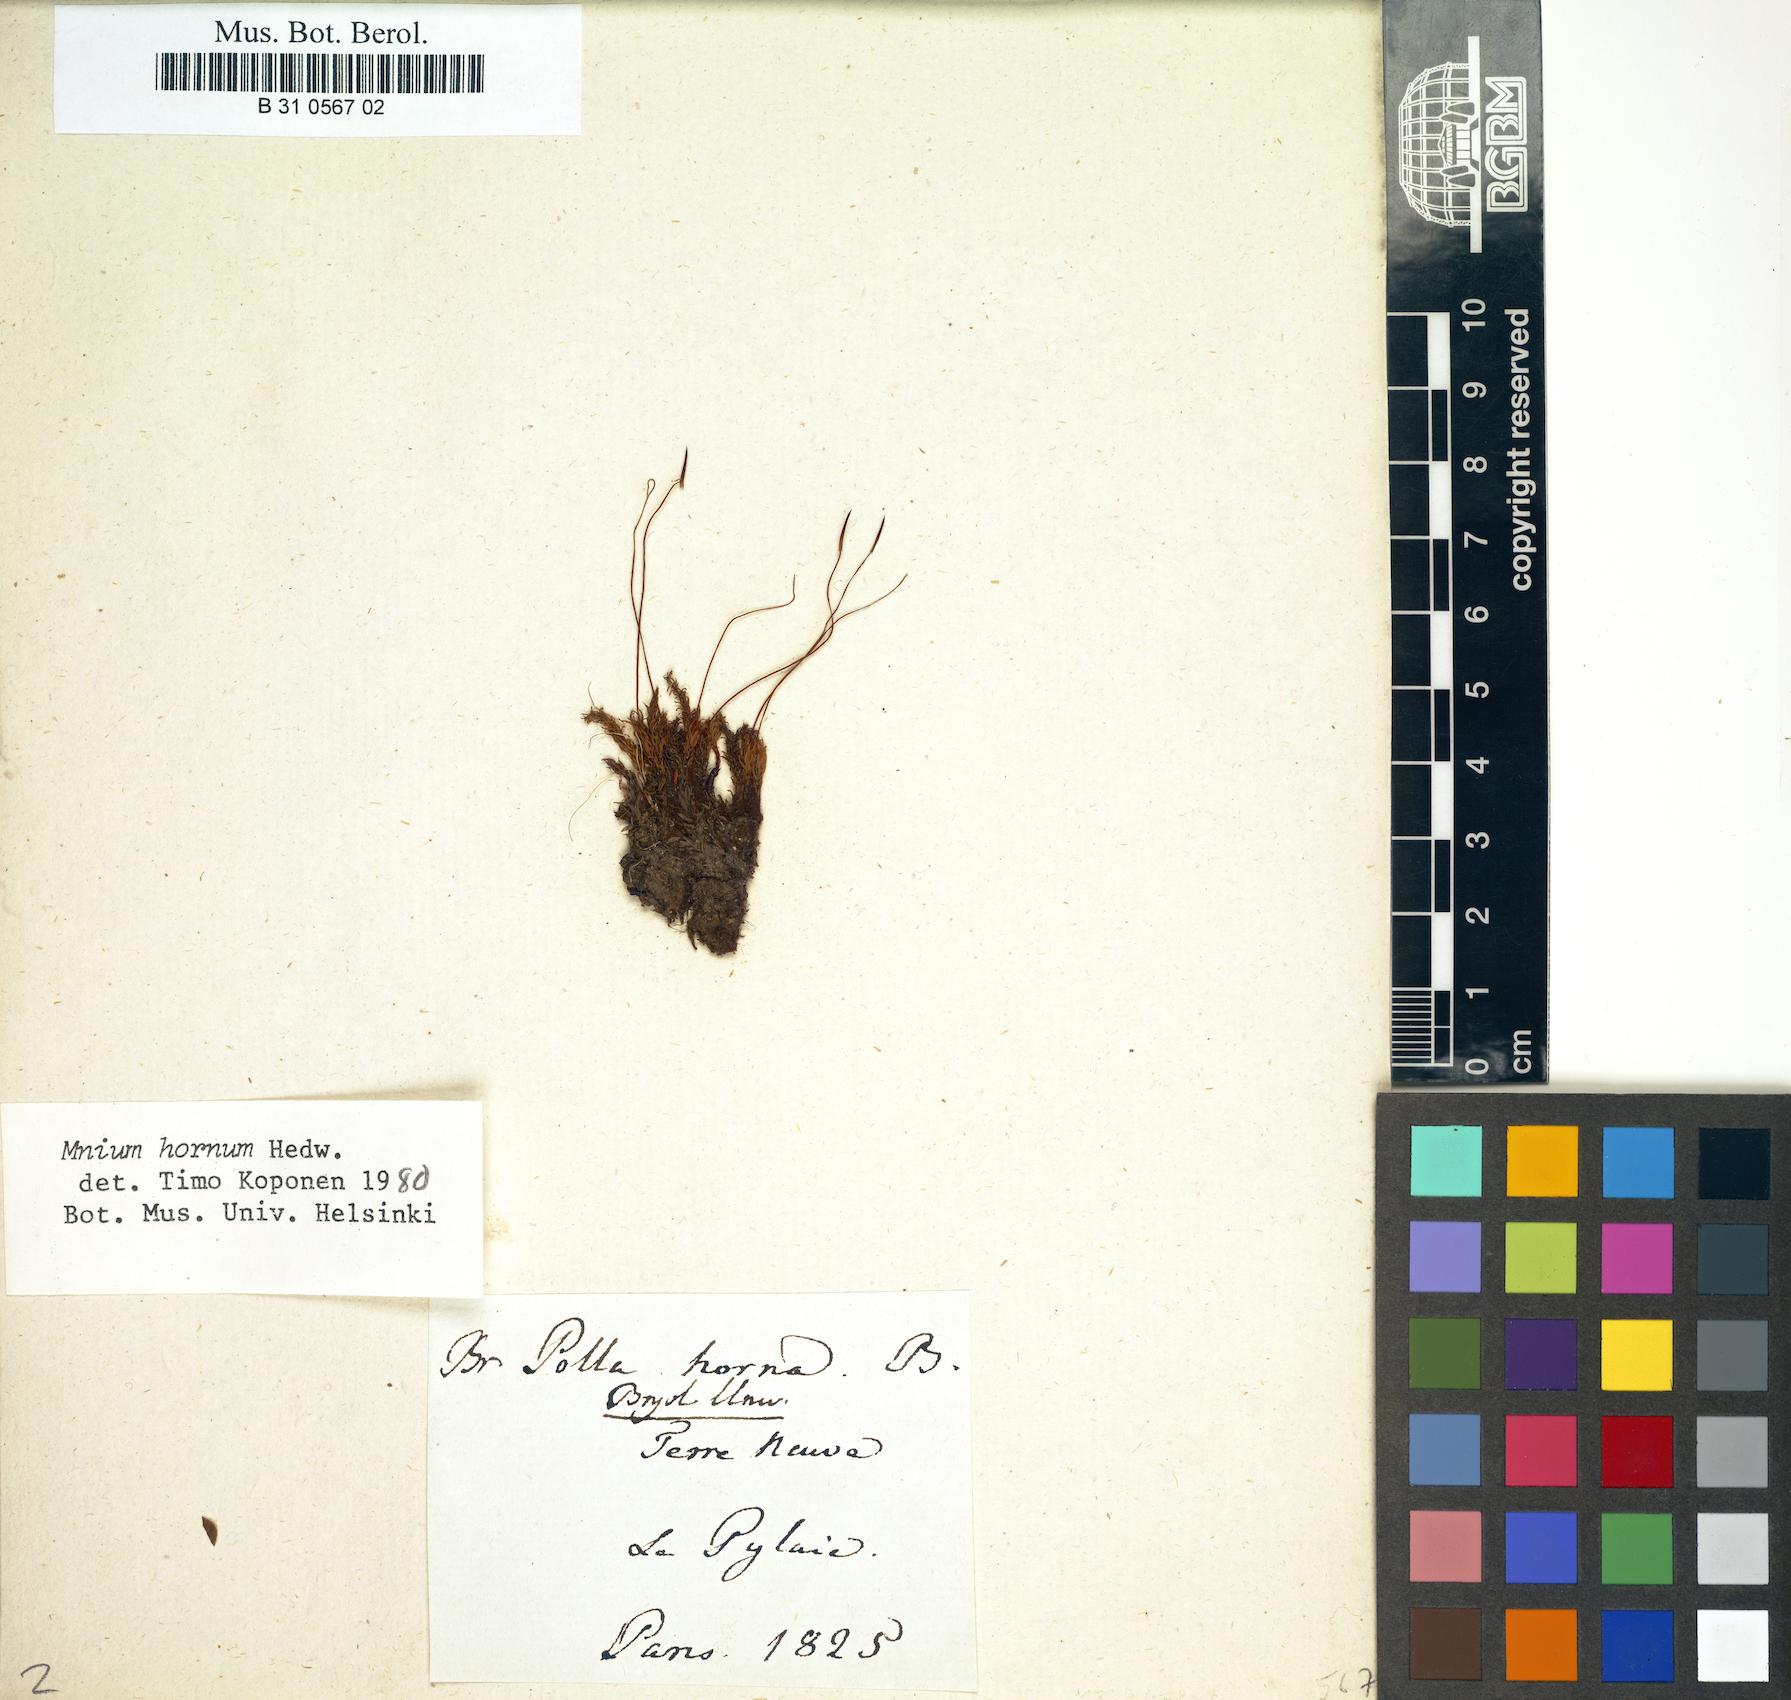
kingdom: Plantae
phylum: Bryophyta
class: Bryopsida
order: Bryales
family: Mniaceae
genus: Mnium
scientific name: Mnium hornum
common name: Swan's-neck leafy moss
